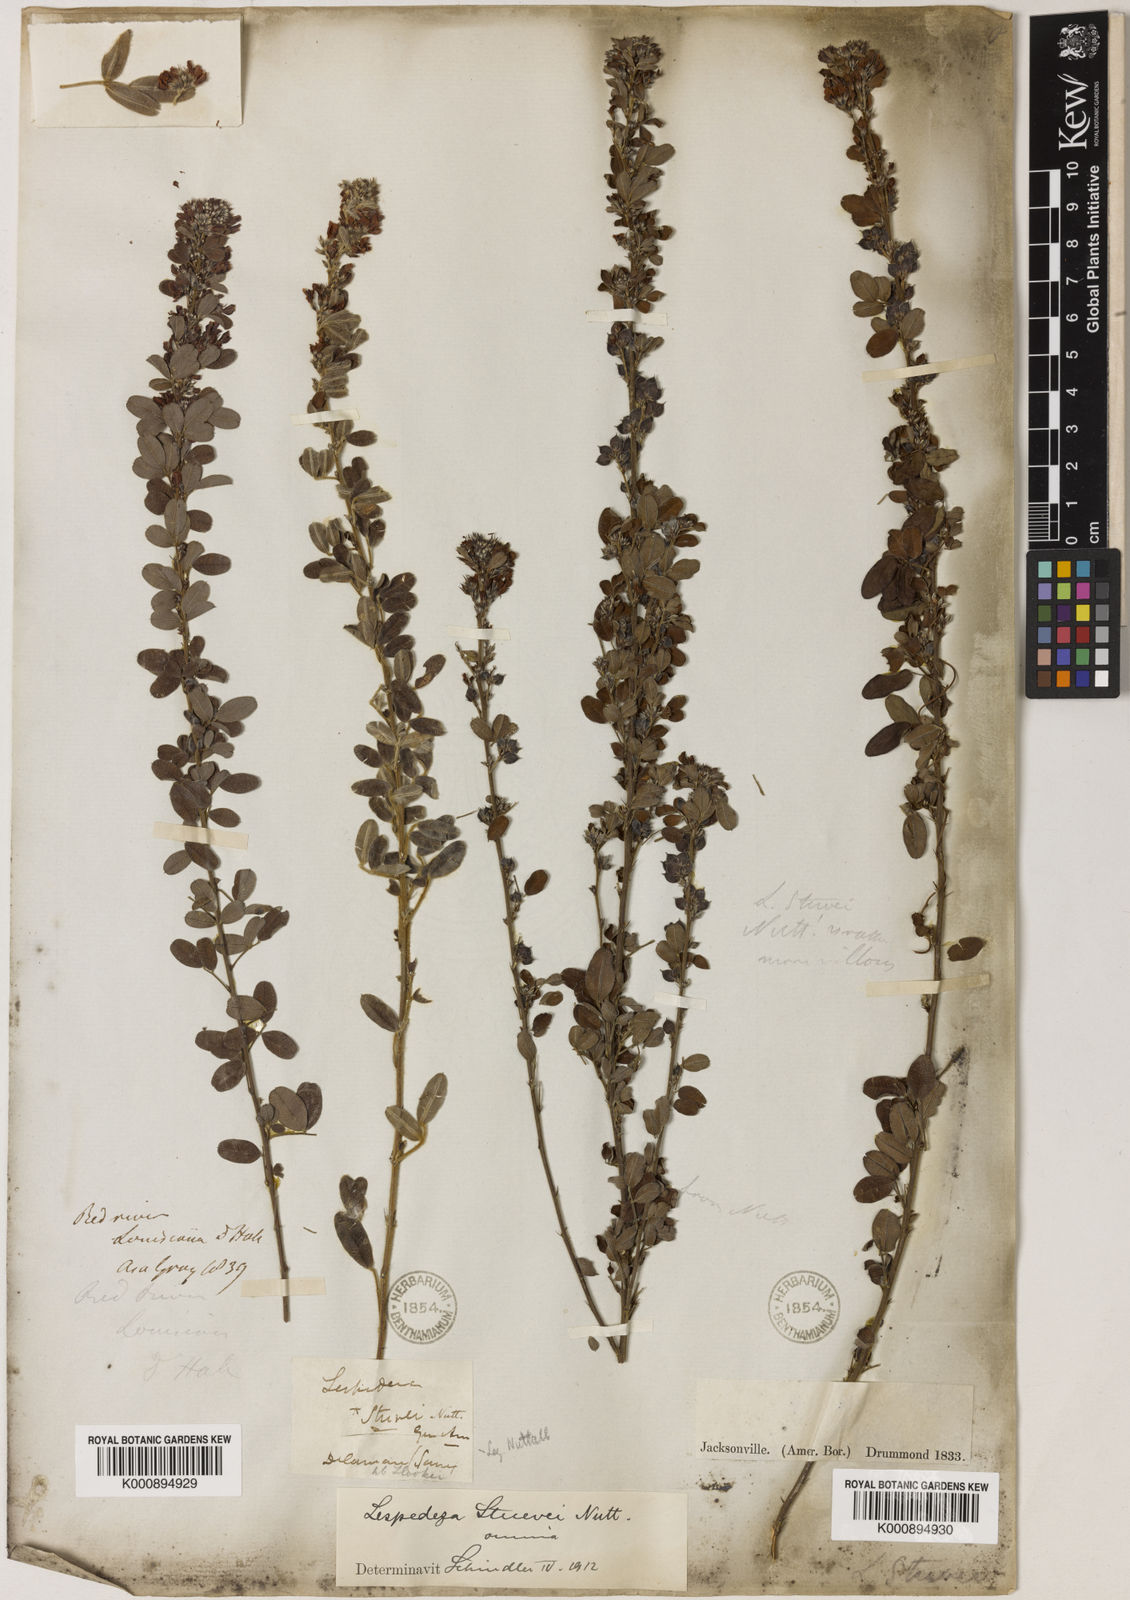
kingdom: Plantae
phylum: Tracheophyta
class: Magnoliopsida
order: Fabales
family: Fabaceae
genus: Lespedeza
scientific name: Lespedeza stuevei
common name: Tall bush-clover
